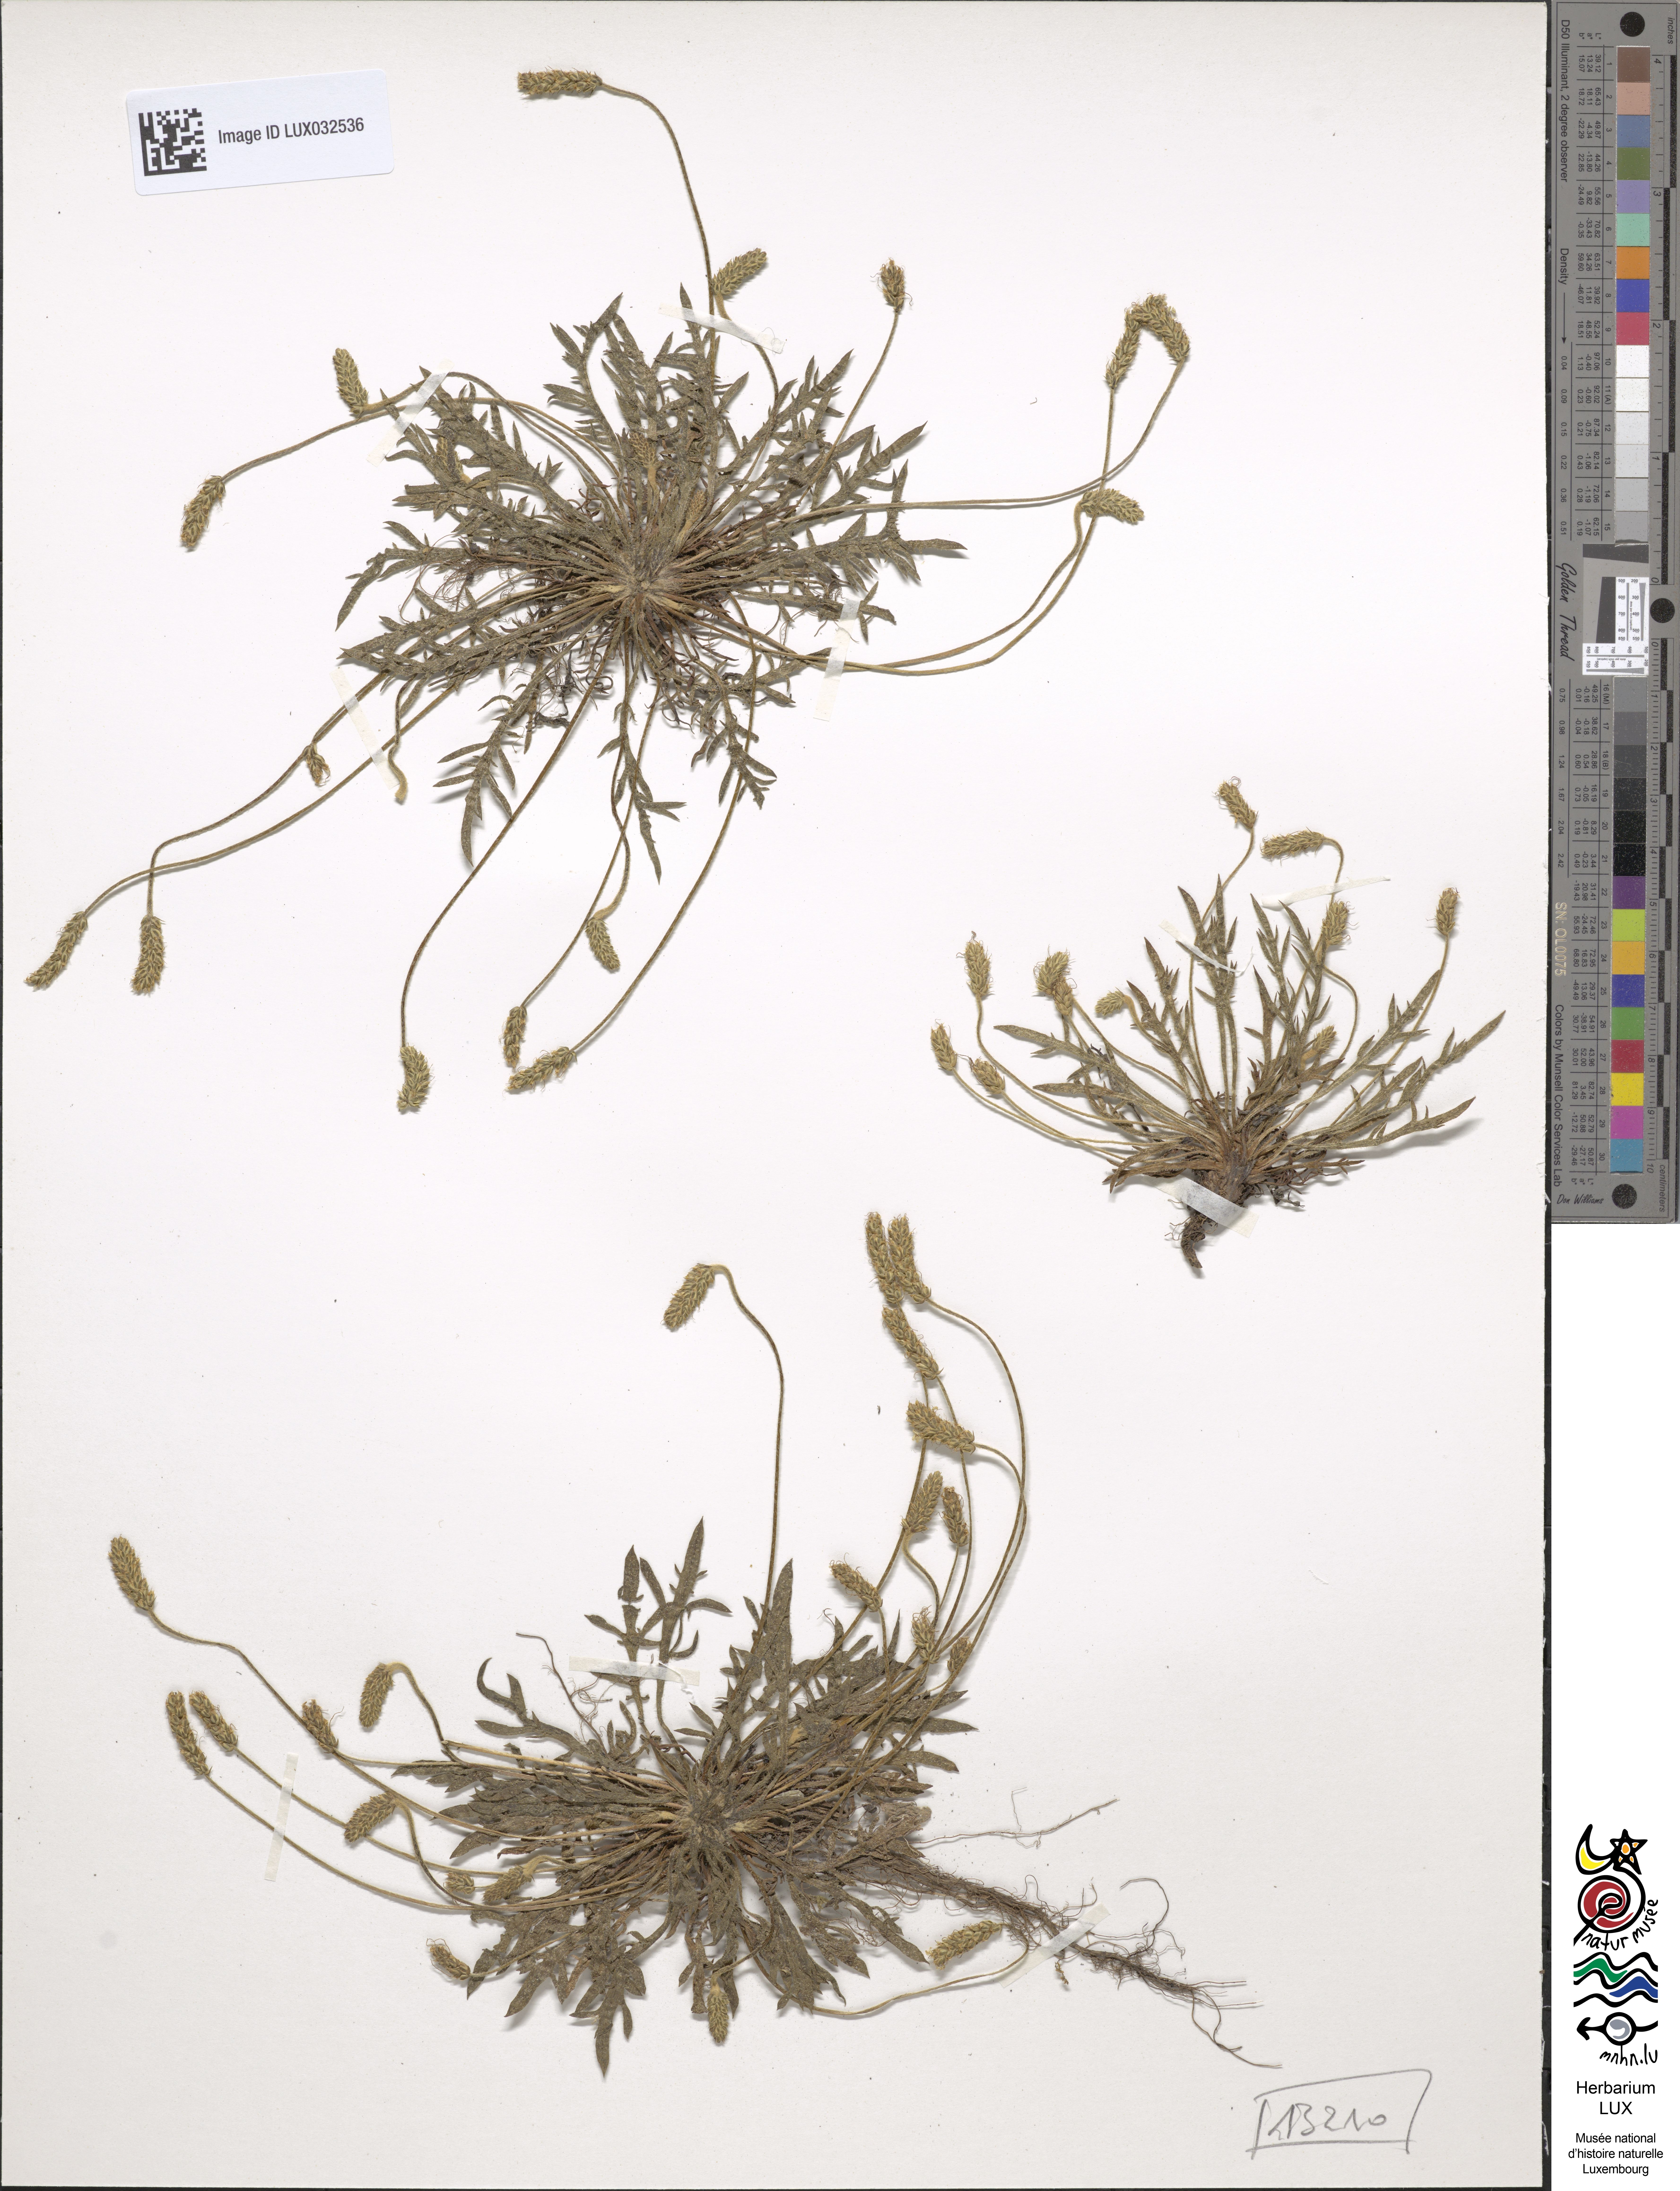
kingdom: Plantae
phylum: Tracheophyta
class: Magnoliopsida
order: Lamiales
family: Plantaginaceae
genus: Plantago
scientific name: Plantago coronopus
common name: Buck's-horn plantain
